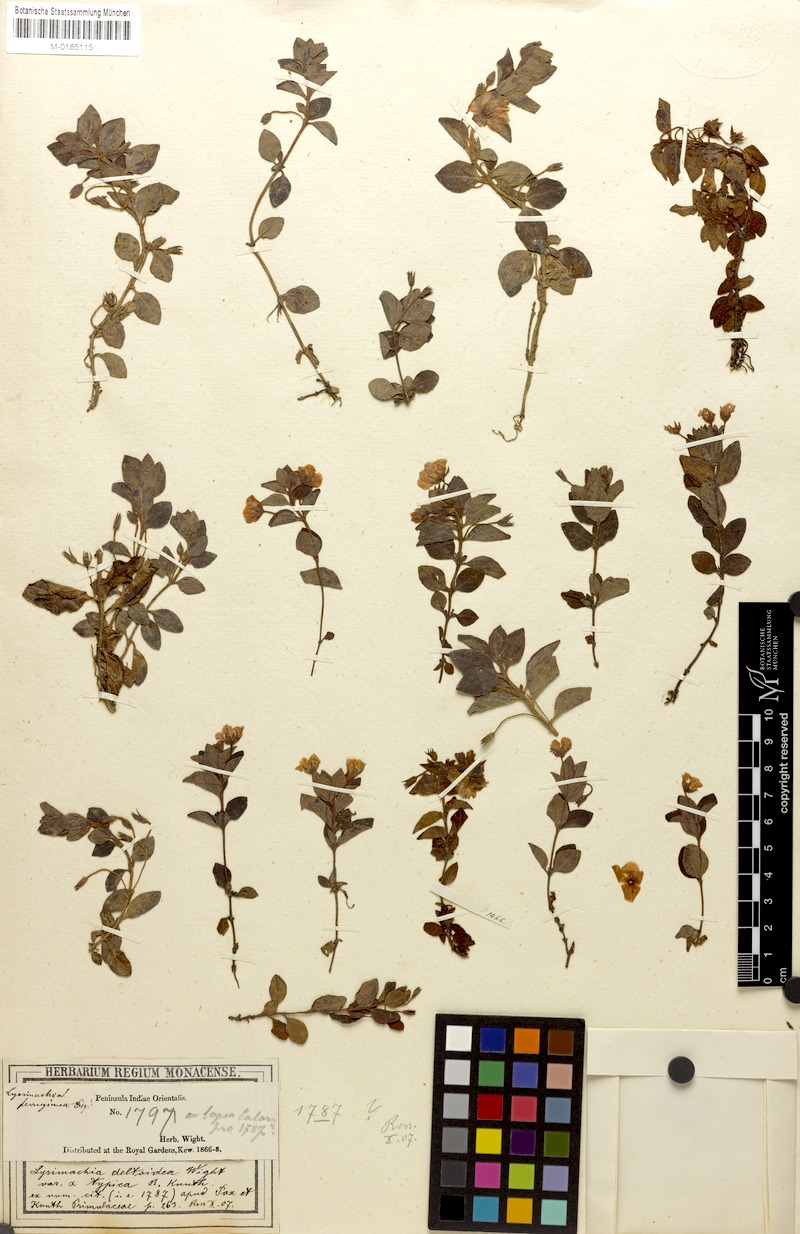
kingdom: Plantae
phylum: Tracheophyta
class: Magnoliopsida
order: Ericales
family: Primulaceae
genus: Lysimachia
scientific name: Lysimachia deltoidea
